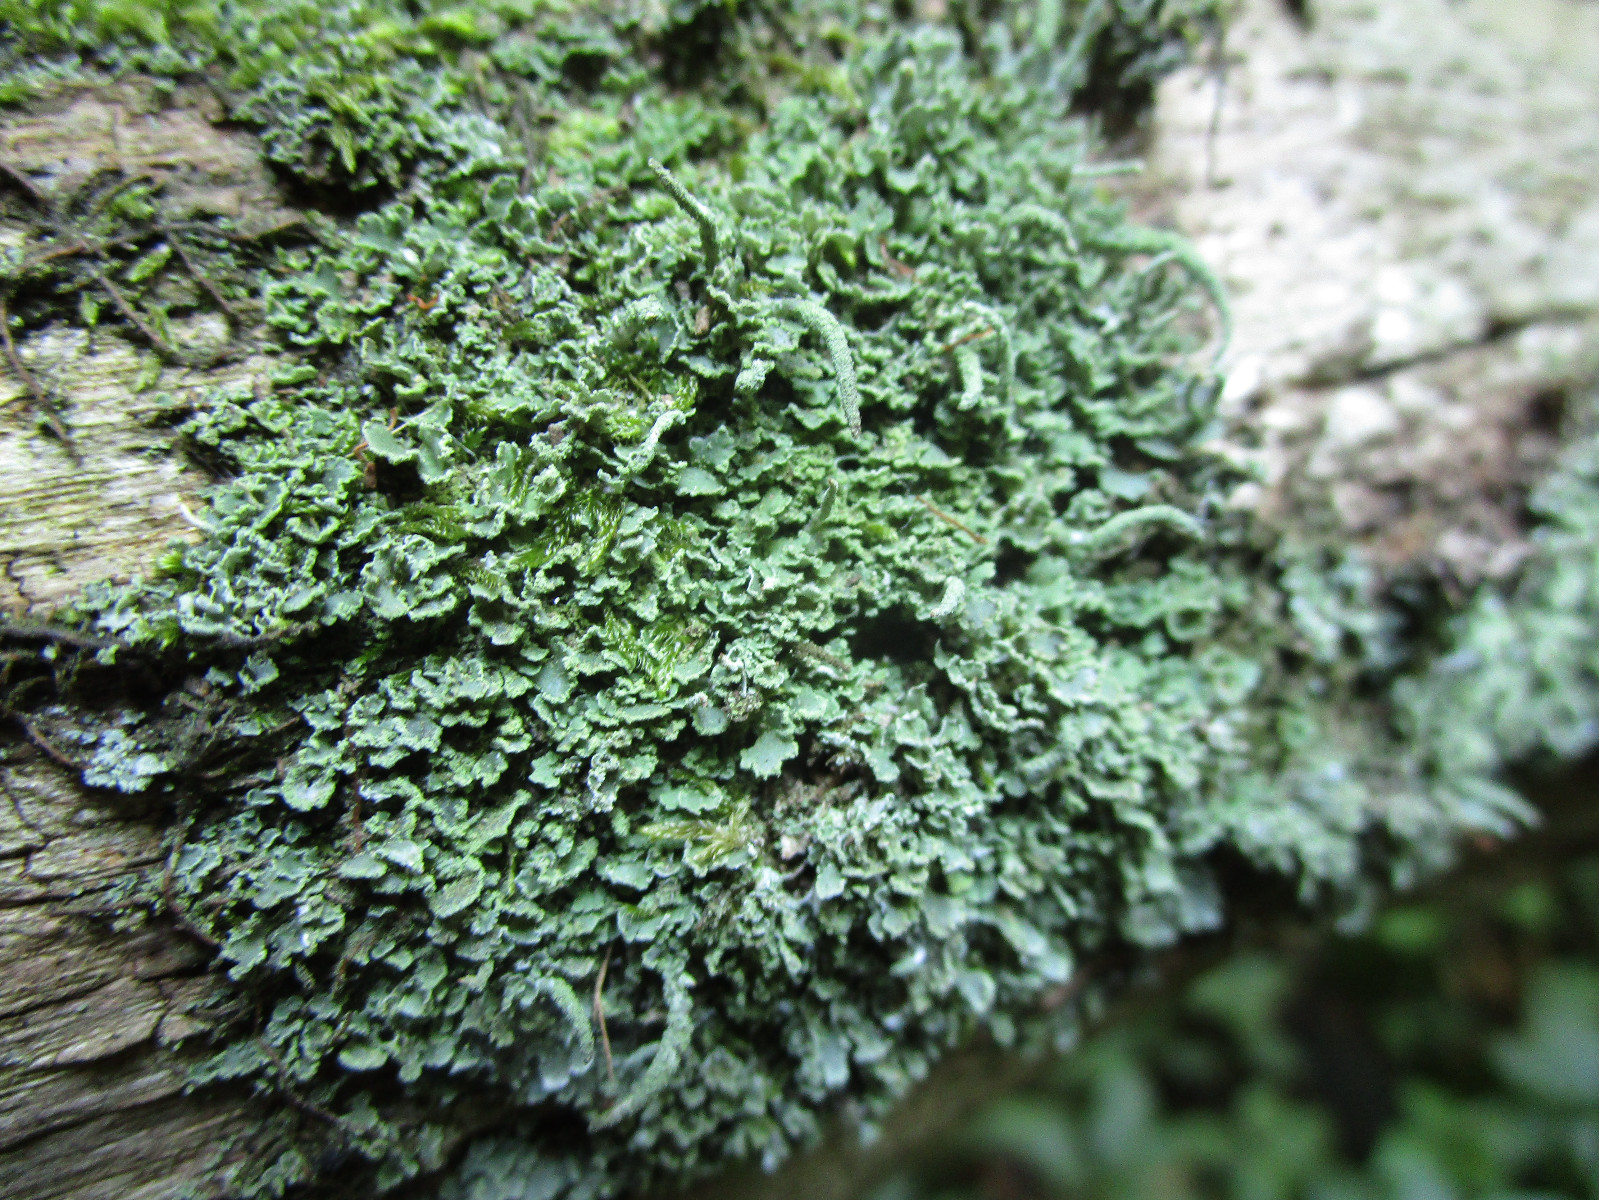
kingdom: Fungi
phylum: Ascomycota
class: Lecanoromycetes
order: Lecanorales
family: Cladoniaceae
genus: Cladonia
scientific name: Cladonia coniocraea
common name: træfods-bægerlav
